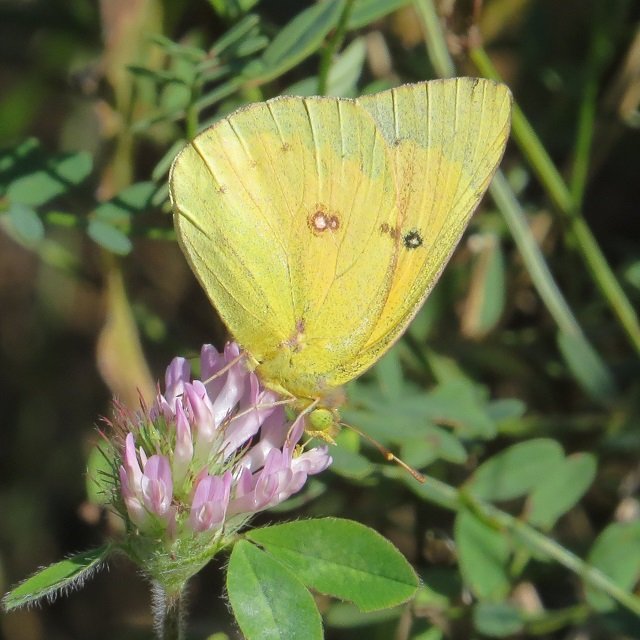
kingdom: Animalia
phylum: Arthropoda
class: Insecta
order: Lepidoptera
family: Pieridae
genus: Colias
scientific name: Colias eurytheme
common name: Orange Sulphur
